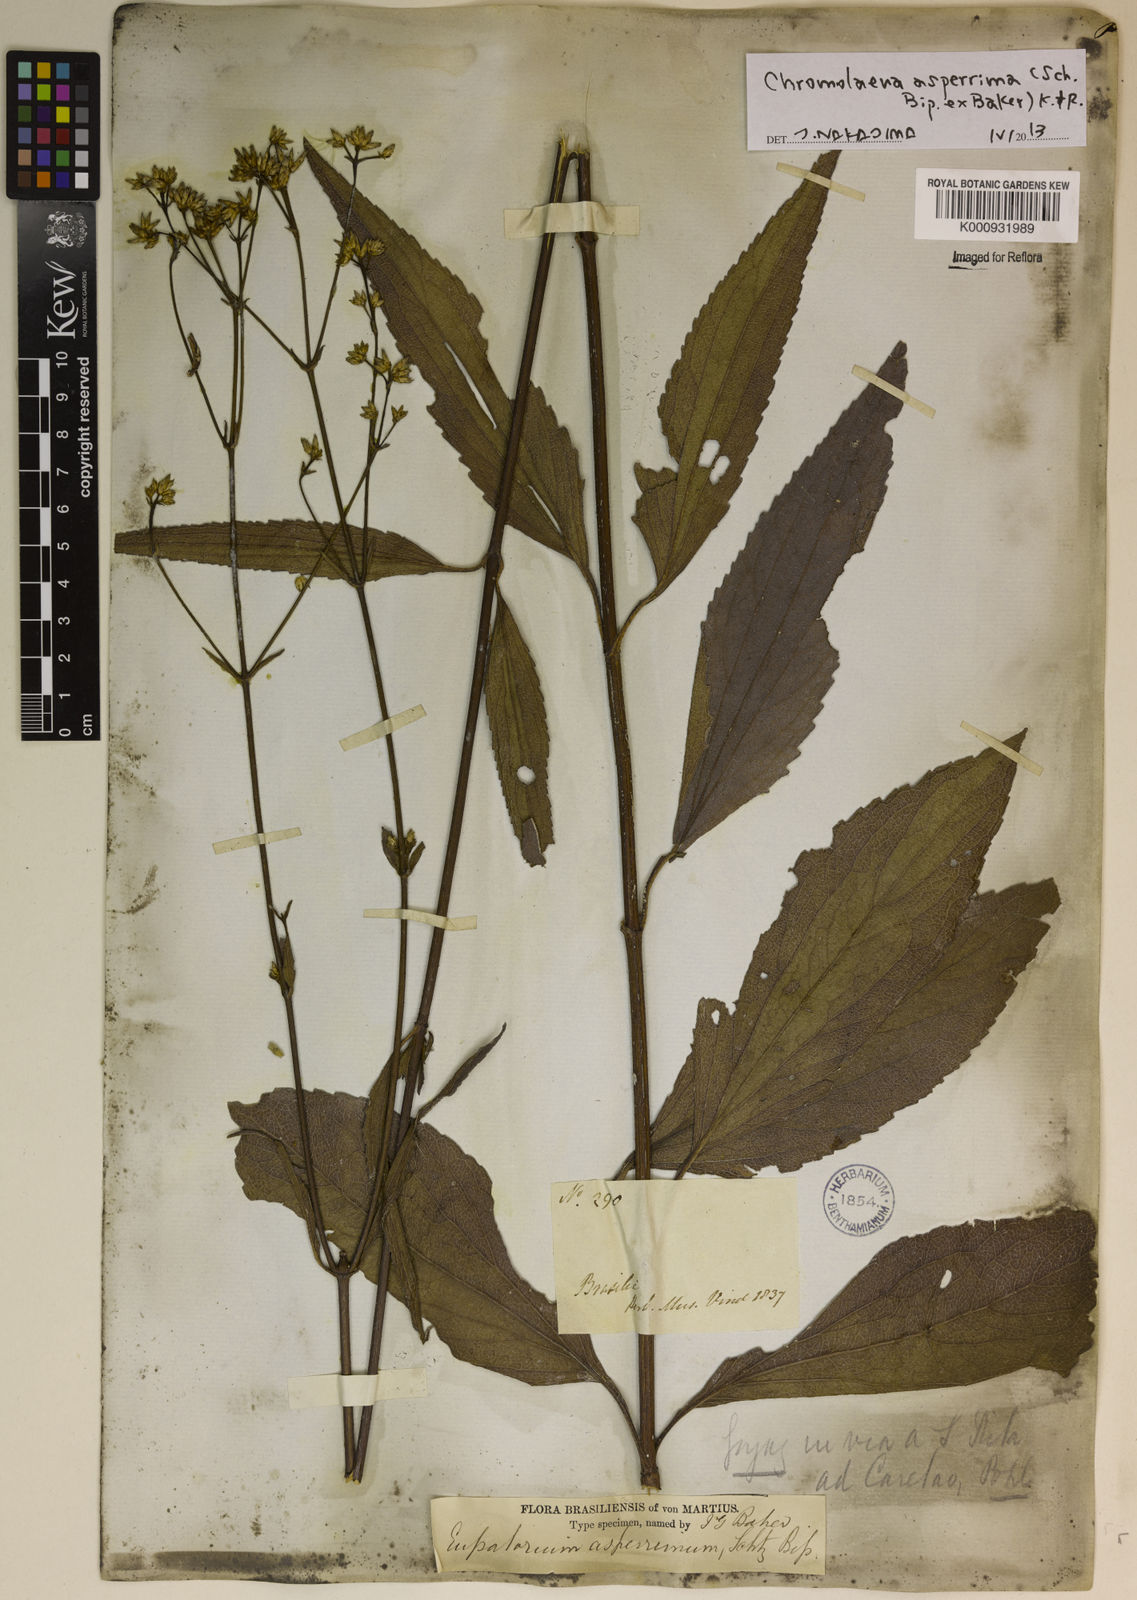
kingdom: Plantae
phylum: Tracheophyta
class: Magnoliopsida
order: Asterales
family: Asteraceae
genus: Chromolaena
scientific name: Chromolaena asperrima
